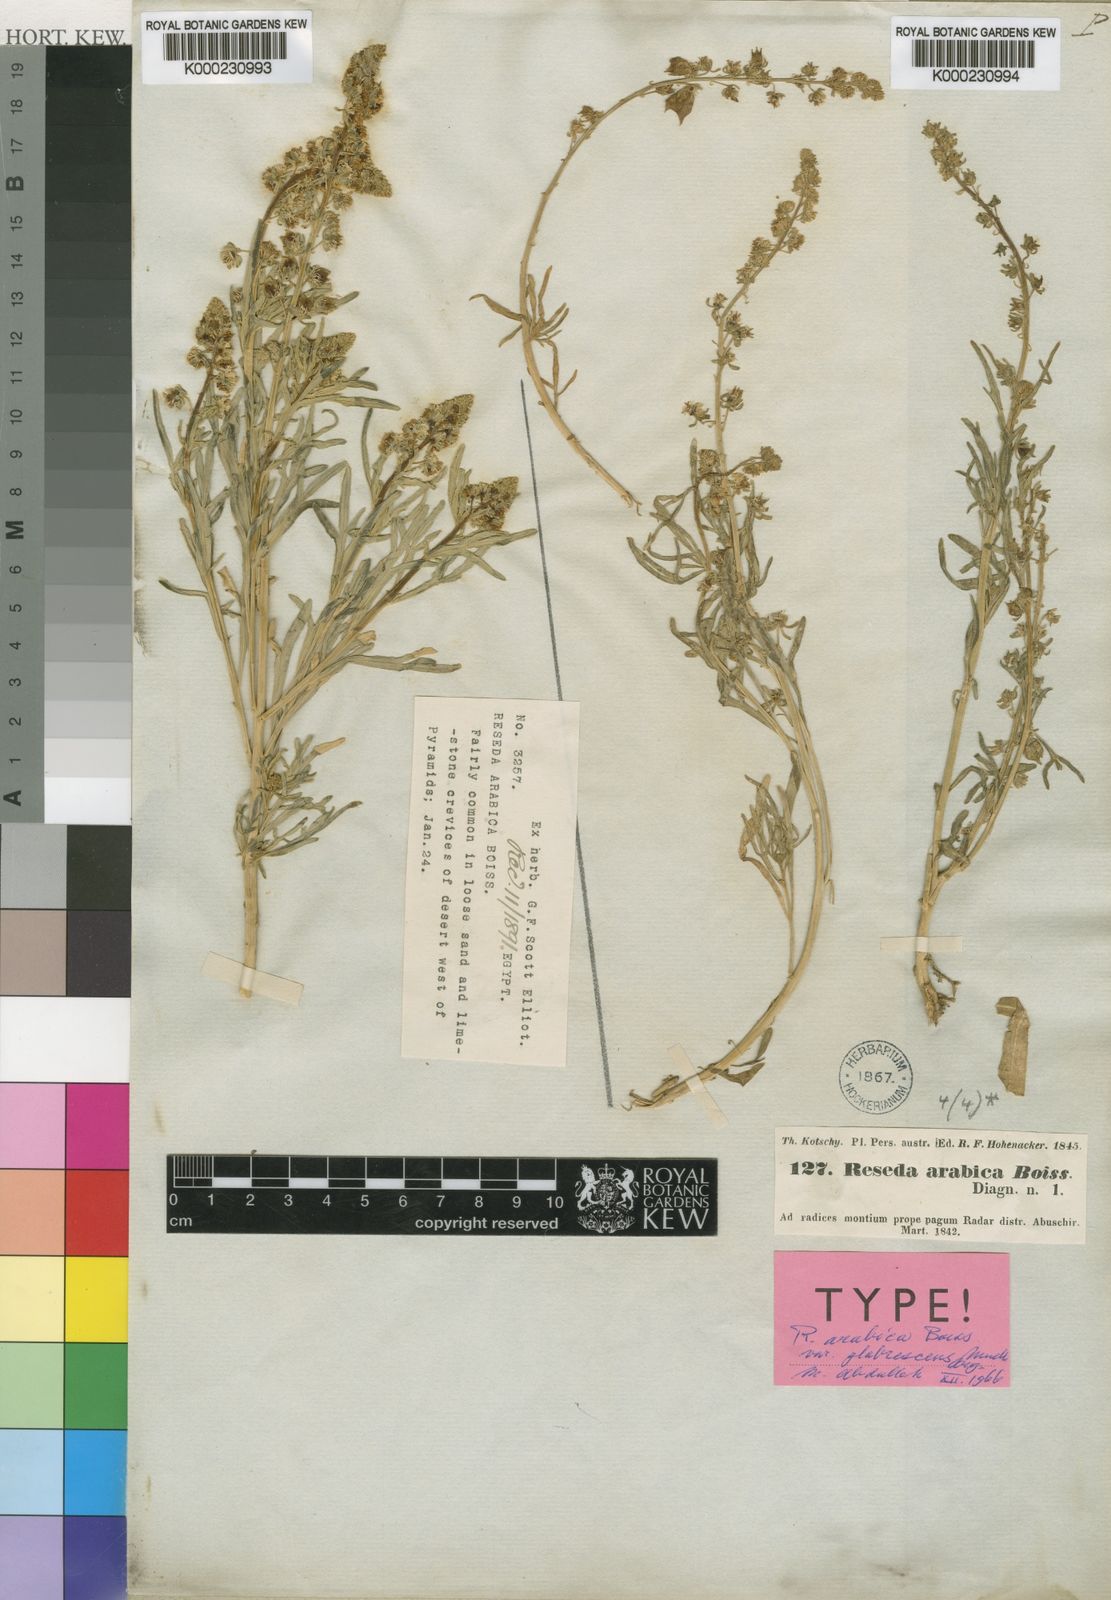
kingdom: Plantae
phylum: Tracheophyta
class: Magnoliopsida
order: Brassicales
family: Resedaceae
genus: Reseda
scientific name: Reseda arabica
